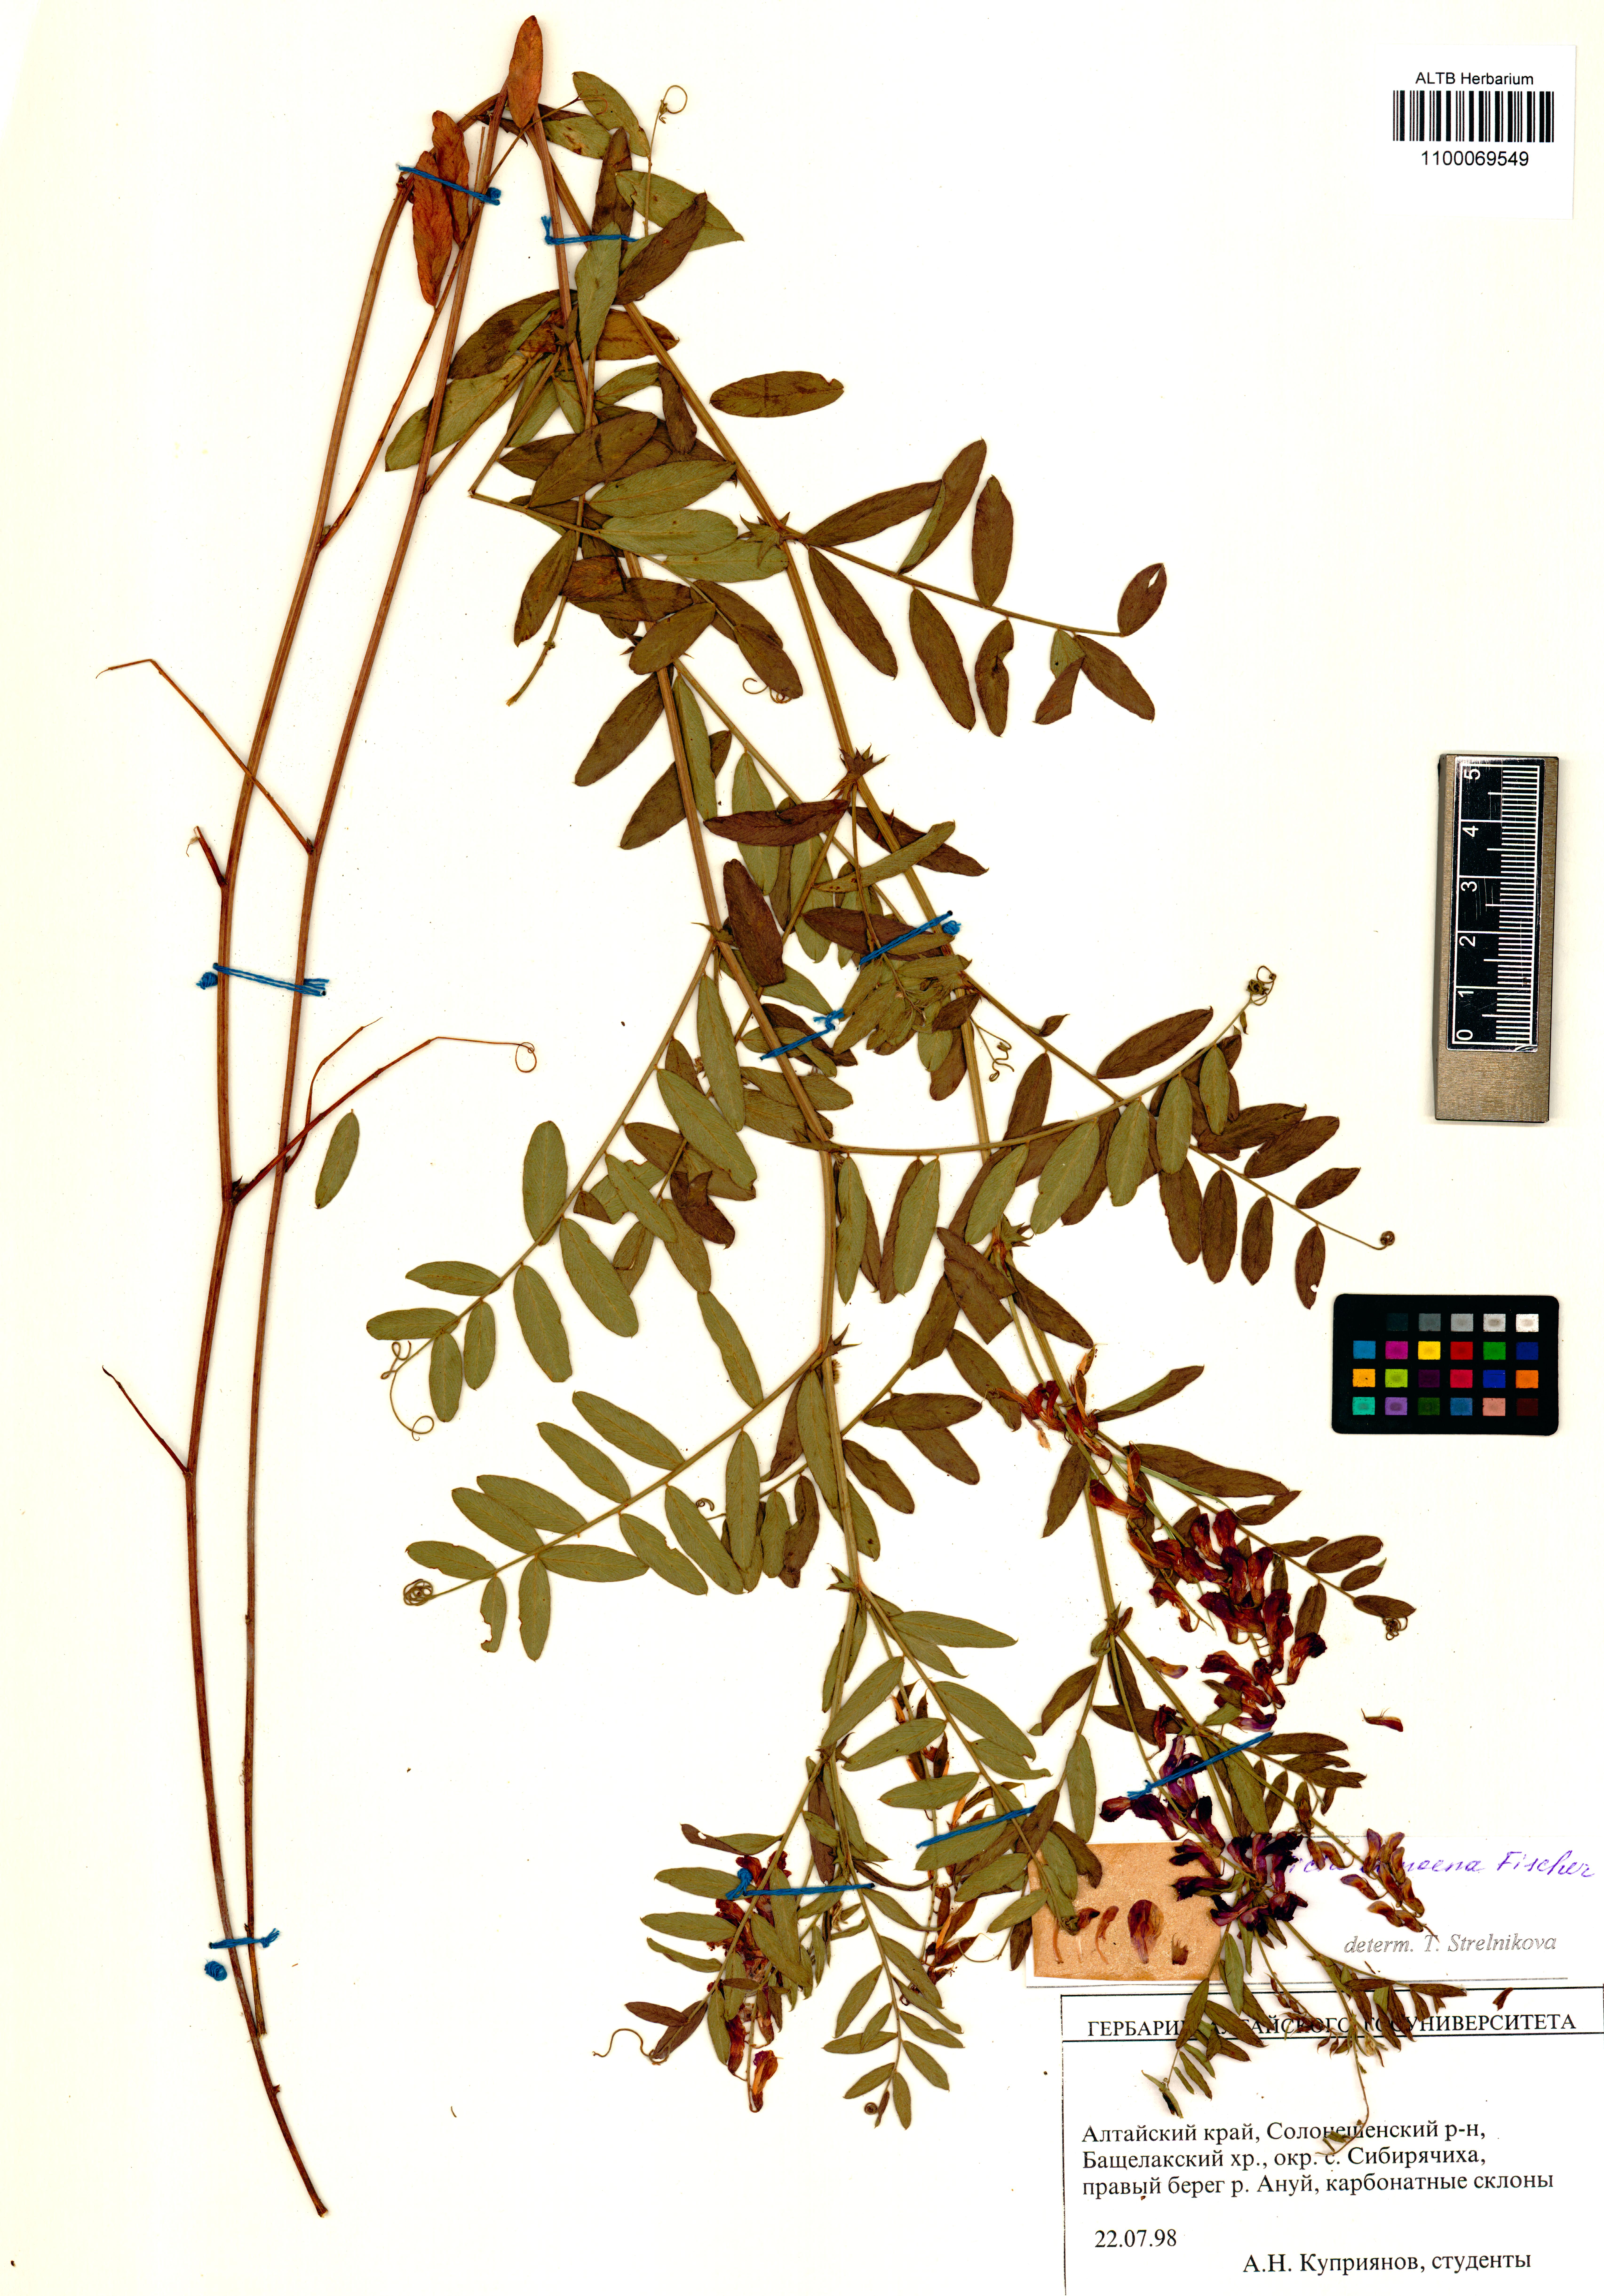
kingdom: Plantae
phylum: Tracheophyta
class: Magnoliopsida
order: Fabales
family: Fabaceae
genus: Vicia
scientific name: Vicia amoena
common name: Cheder ebs
